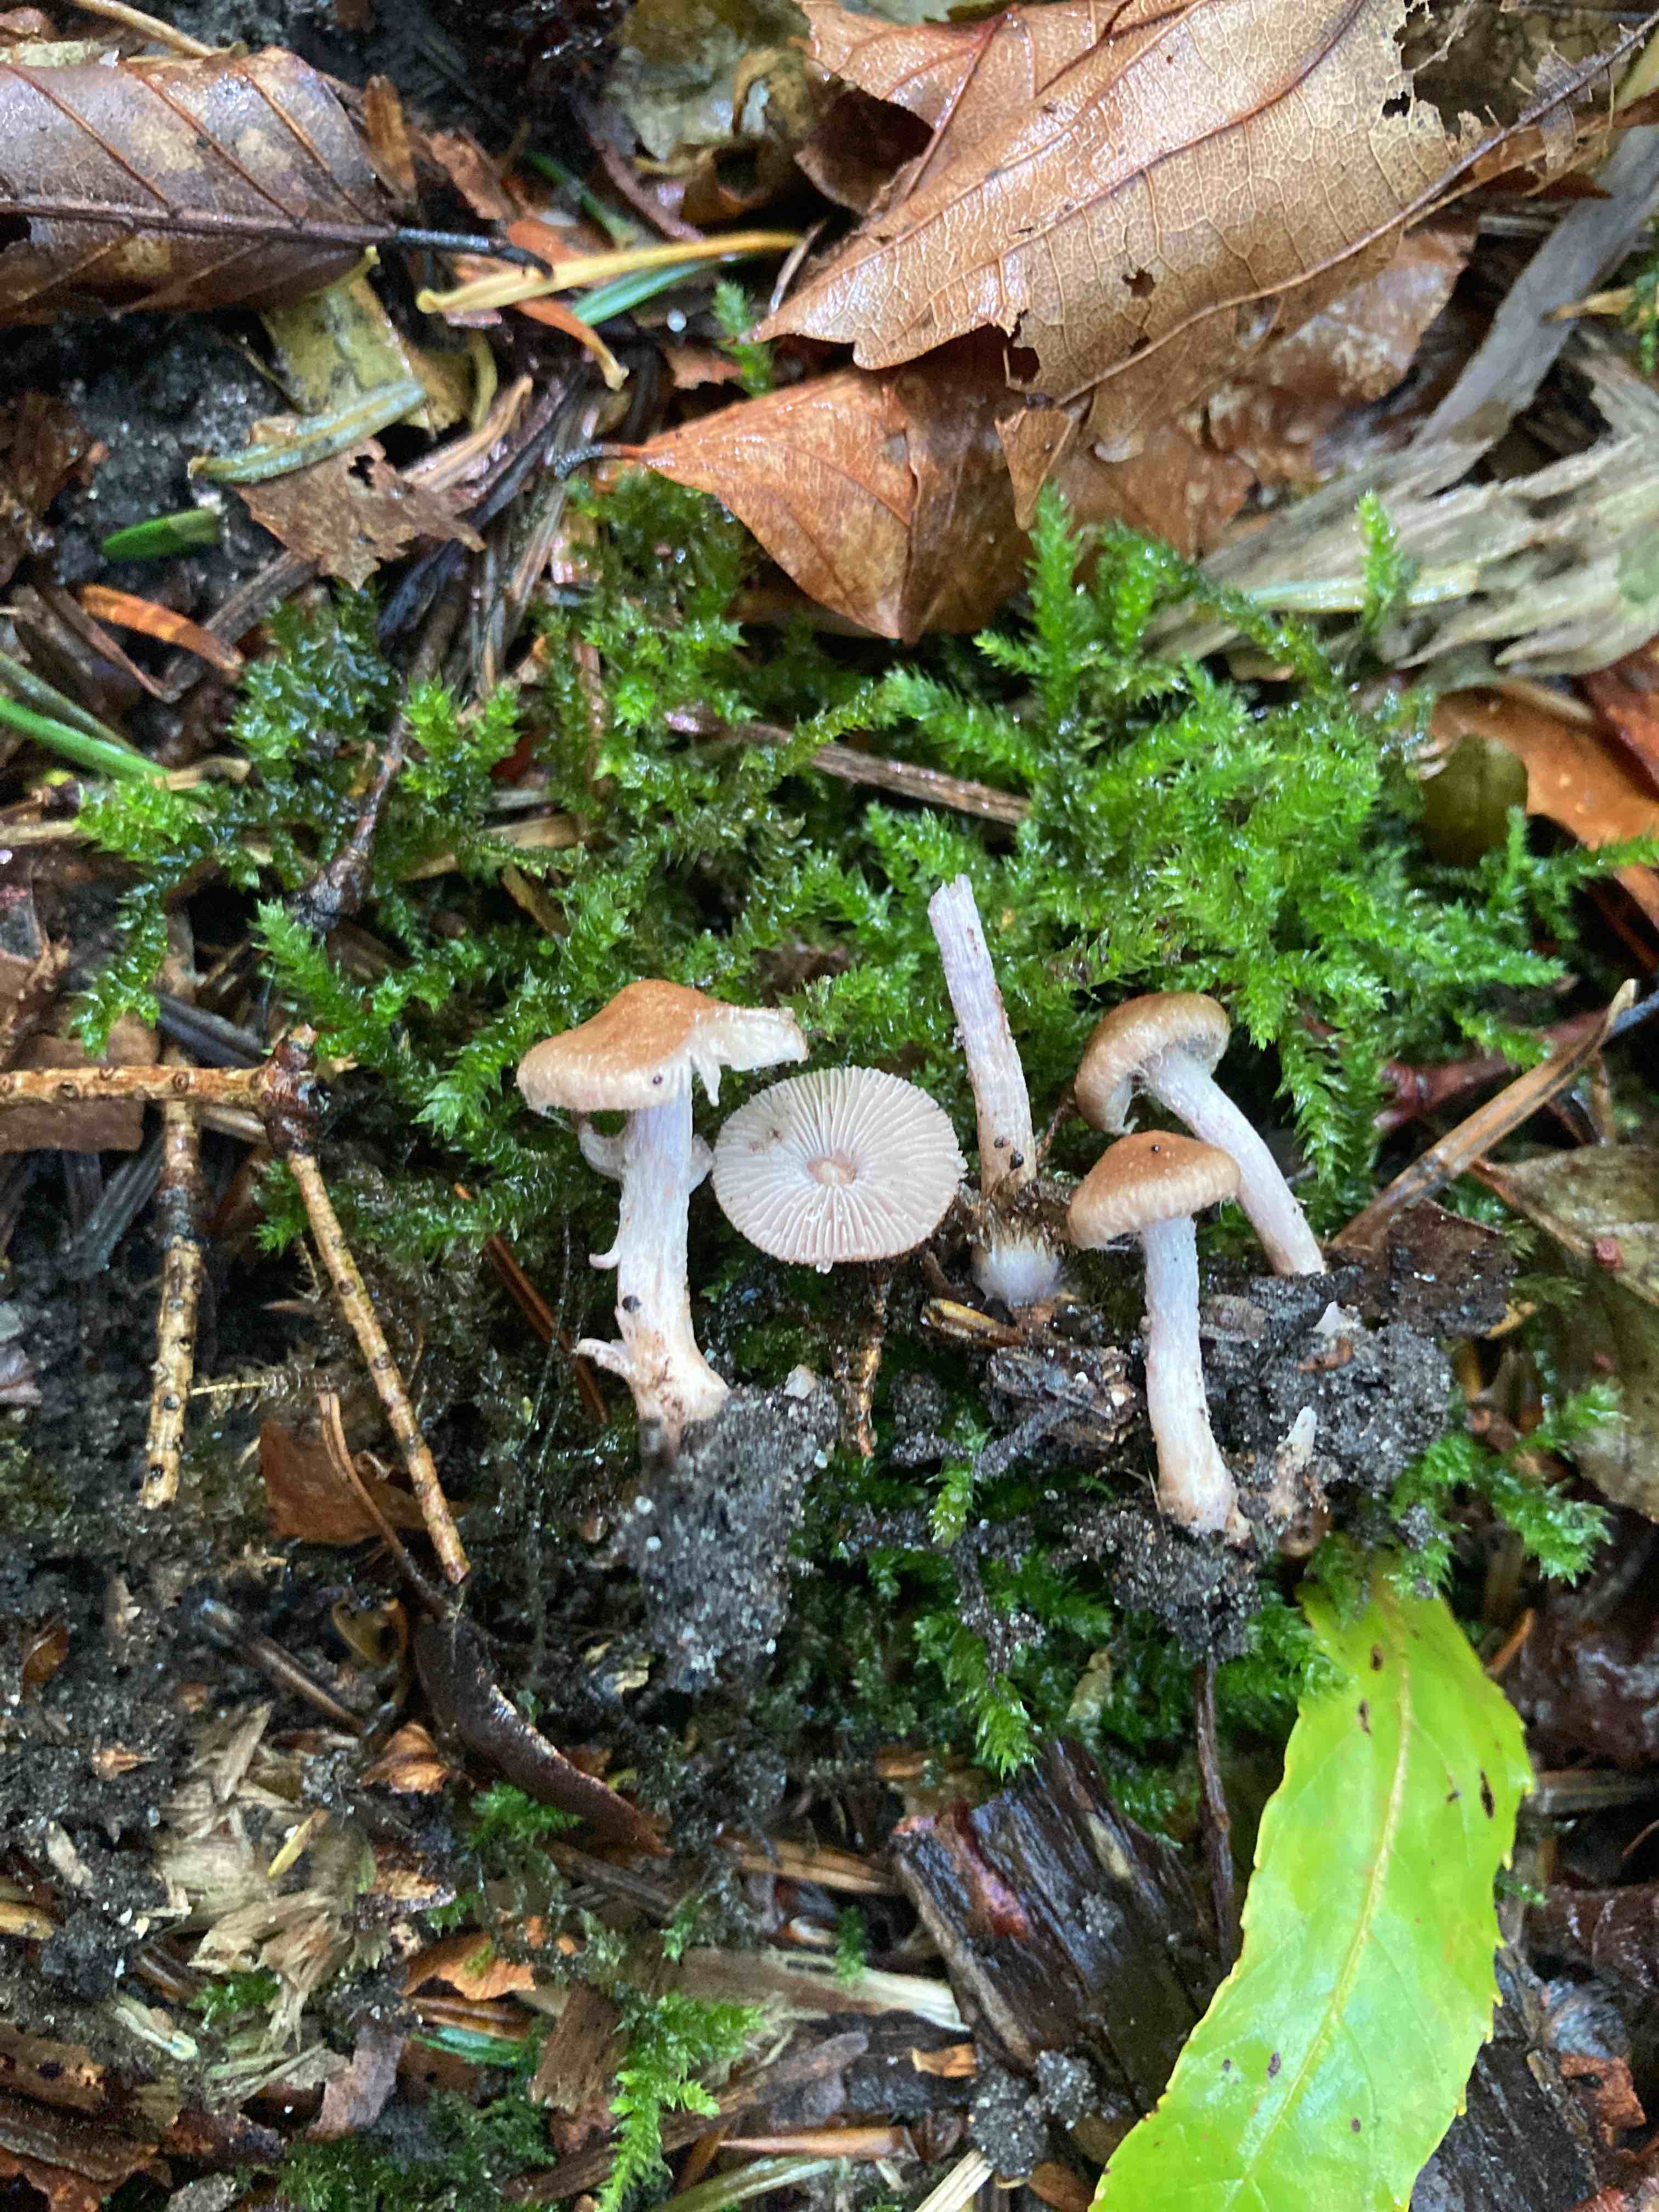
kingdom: Fungi
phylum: Basidiomycota
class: Agaricomycetes
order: Agaricales
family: Inocybaceae
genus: Inocybe
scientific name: Inocybe
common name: trævlhat
